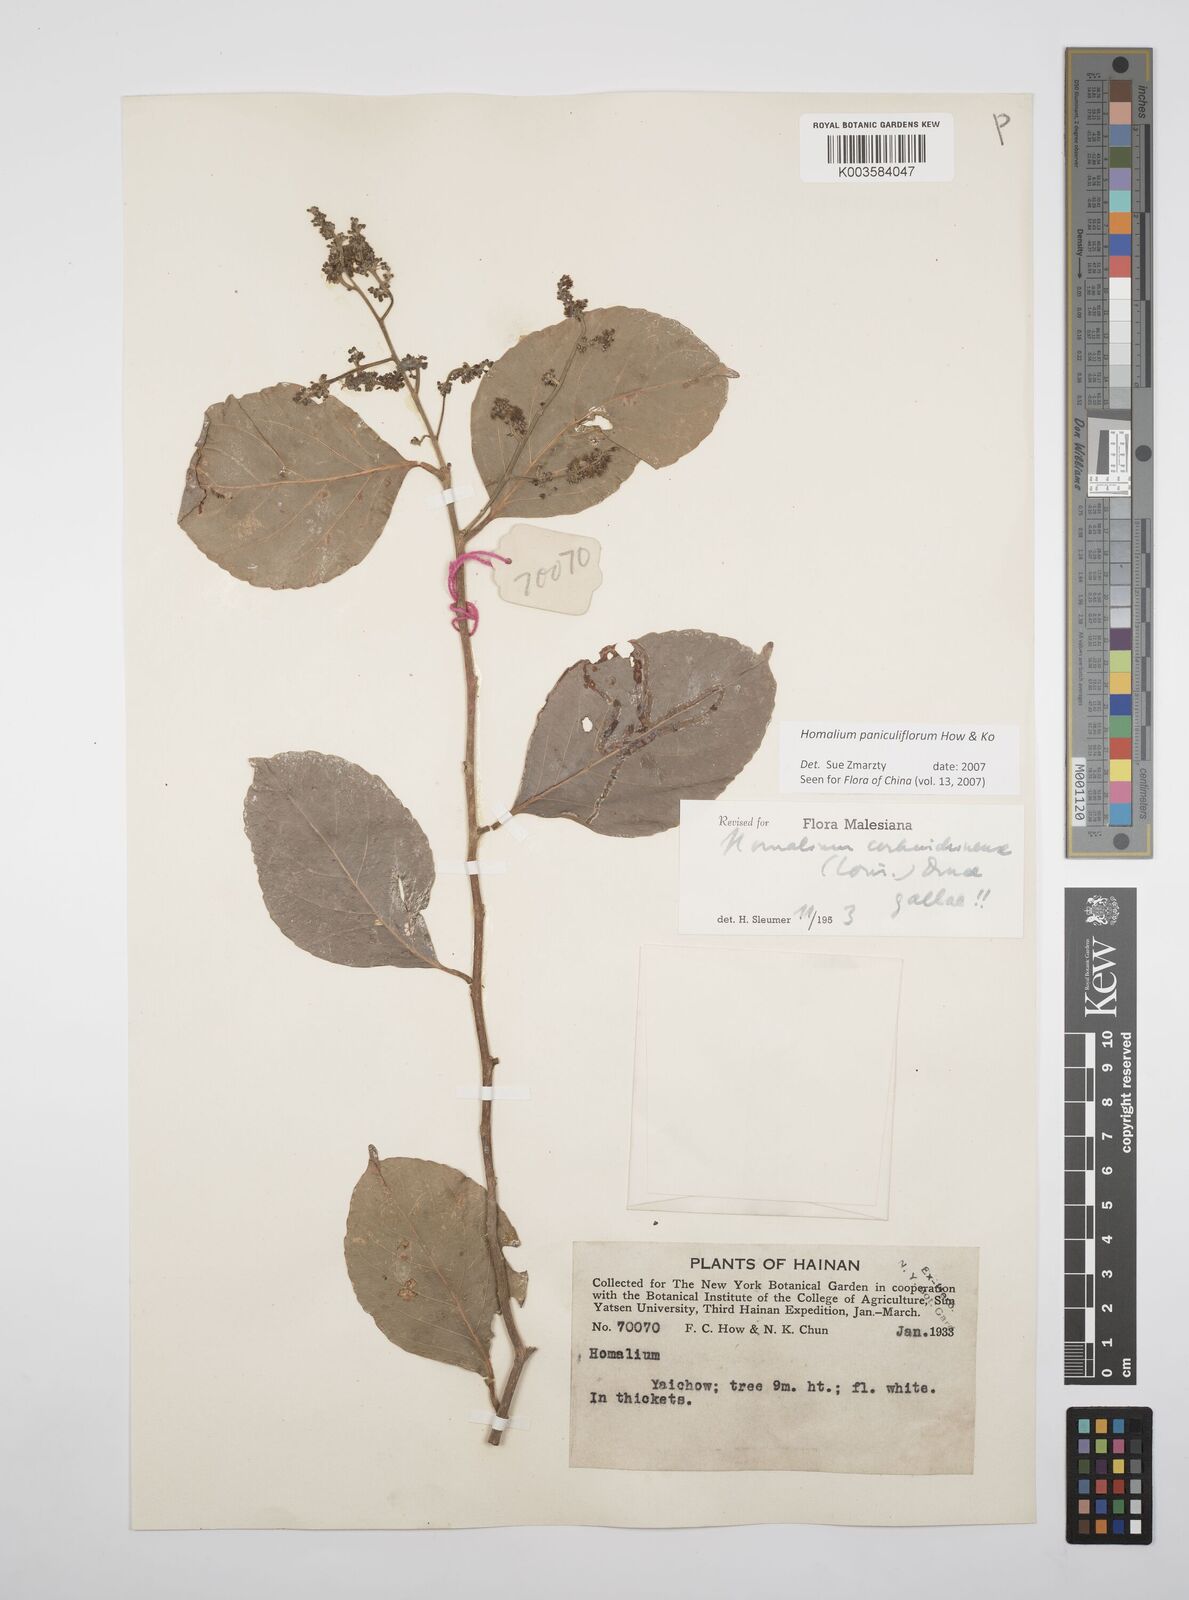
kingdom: Plantae
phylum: Tracheophyta
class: Magnoliopsida
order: Malpighiales
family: Salicaceae
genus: Homalium
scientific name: Homalium paniculiflorum
